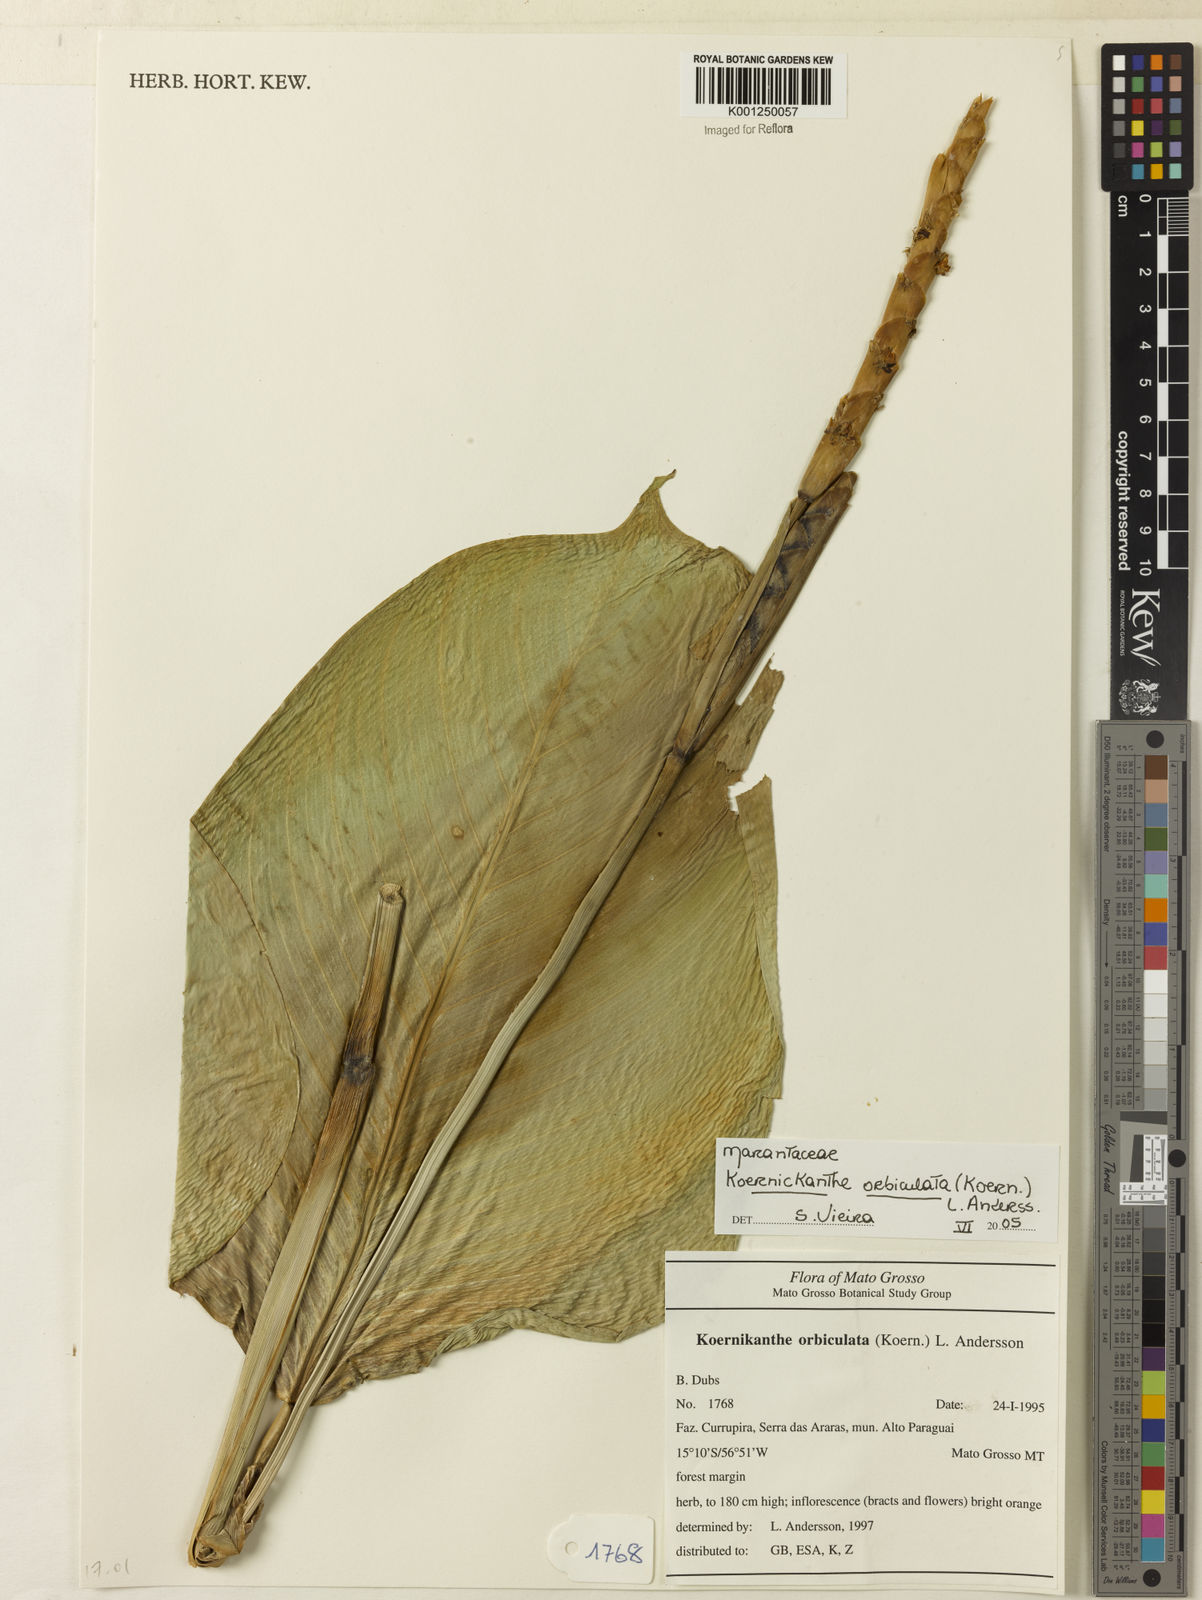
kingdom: Plantae
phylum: Tracheophyta
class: Liliopsida
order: Zingiberales
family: Marantaceae
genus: Koernickanthe
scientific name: Koernickanthe orbiculata
